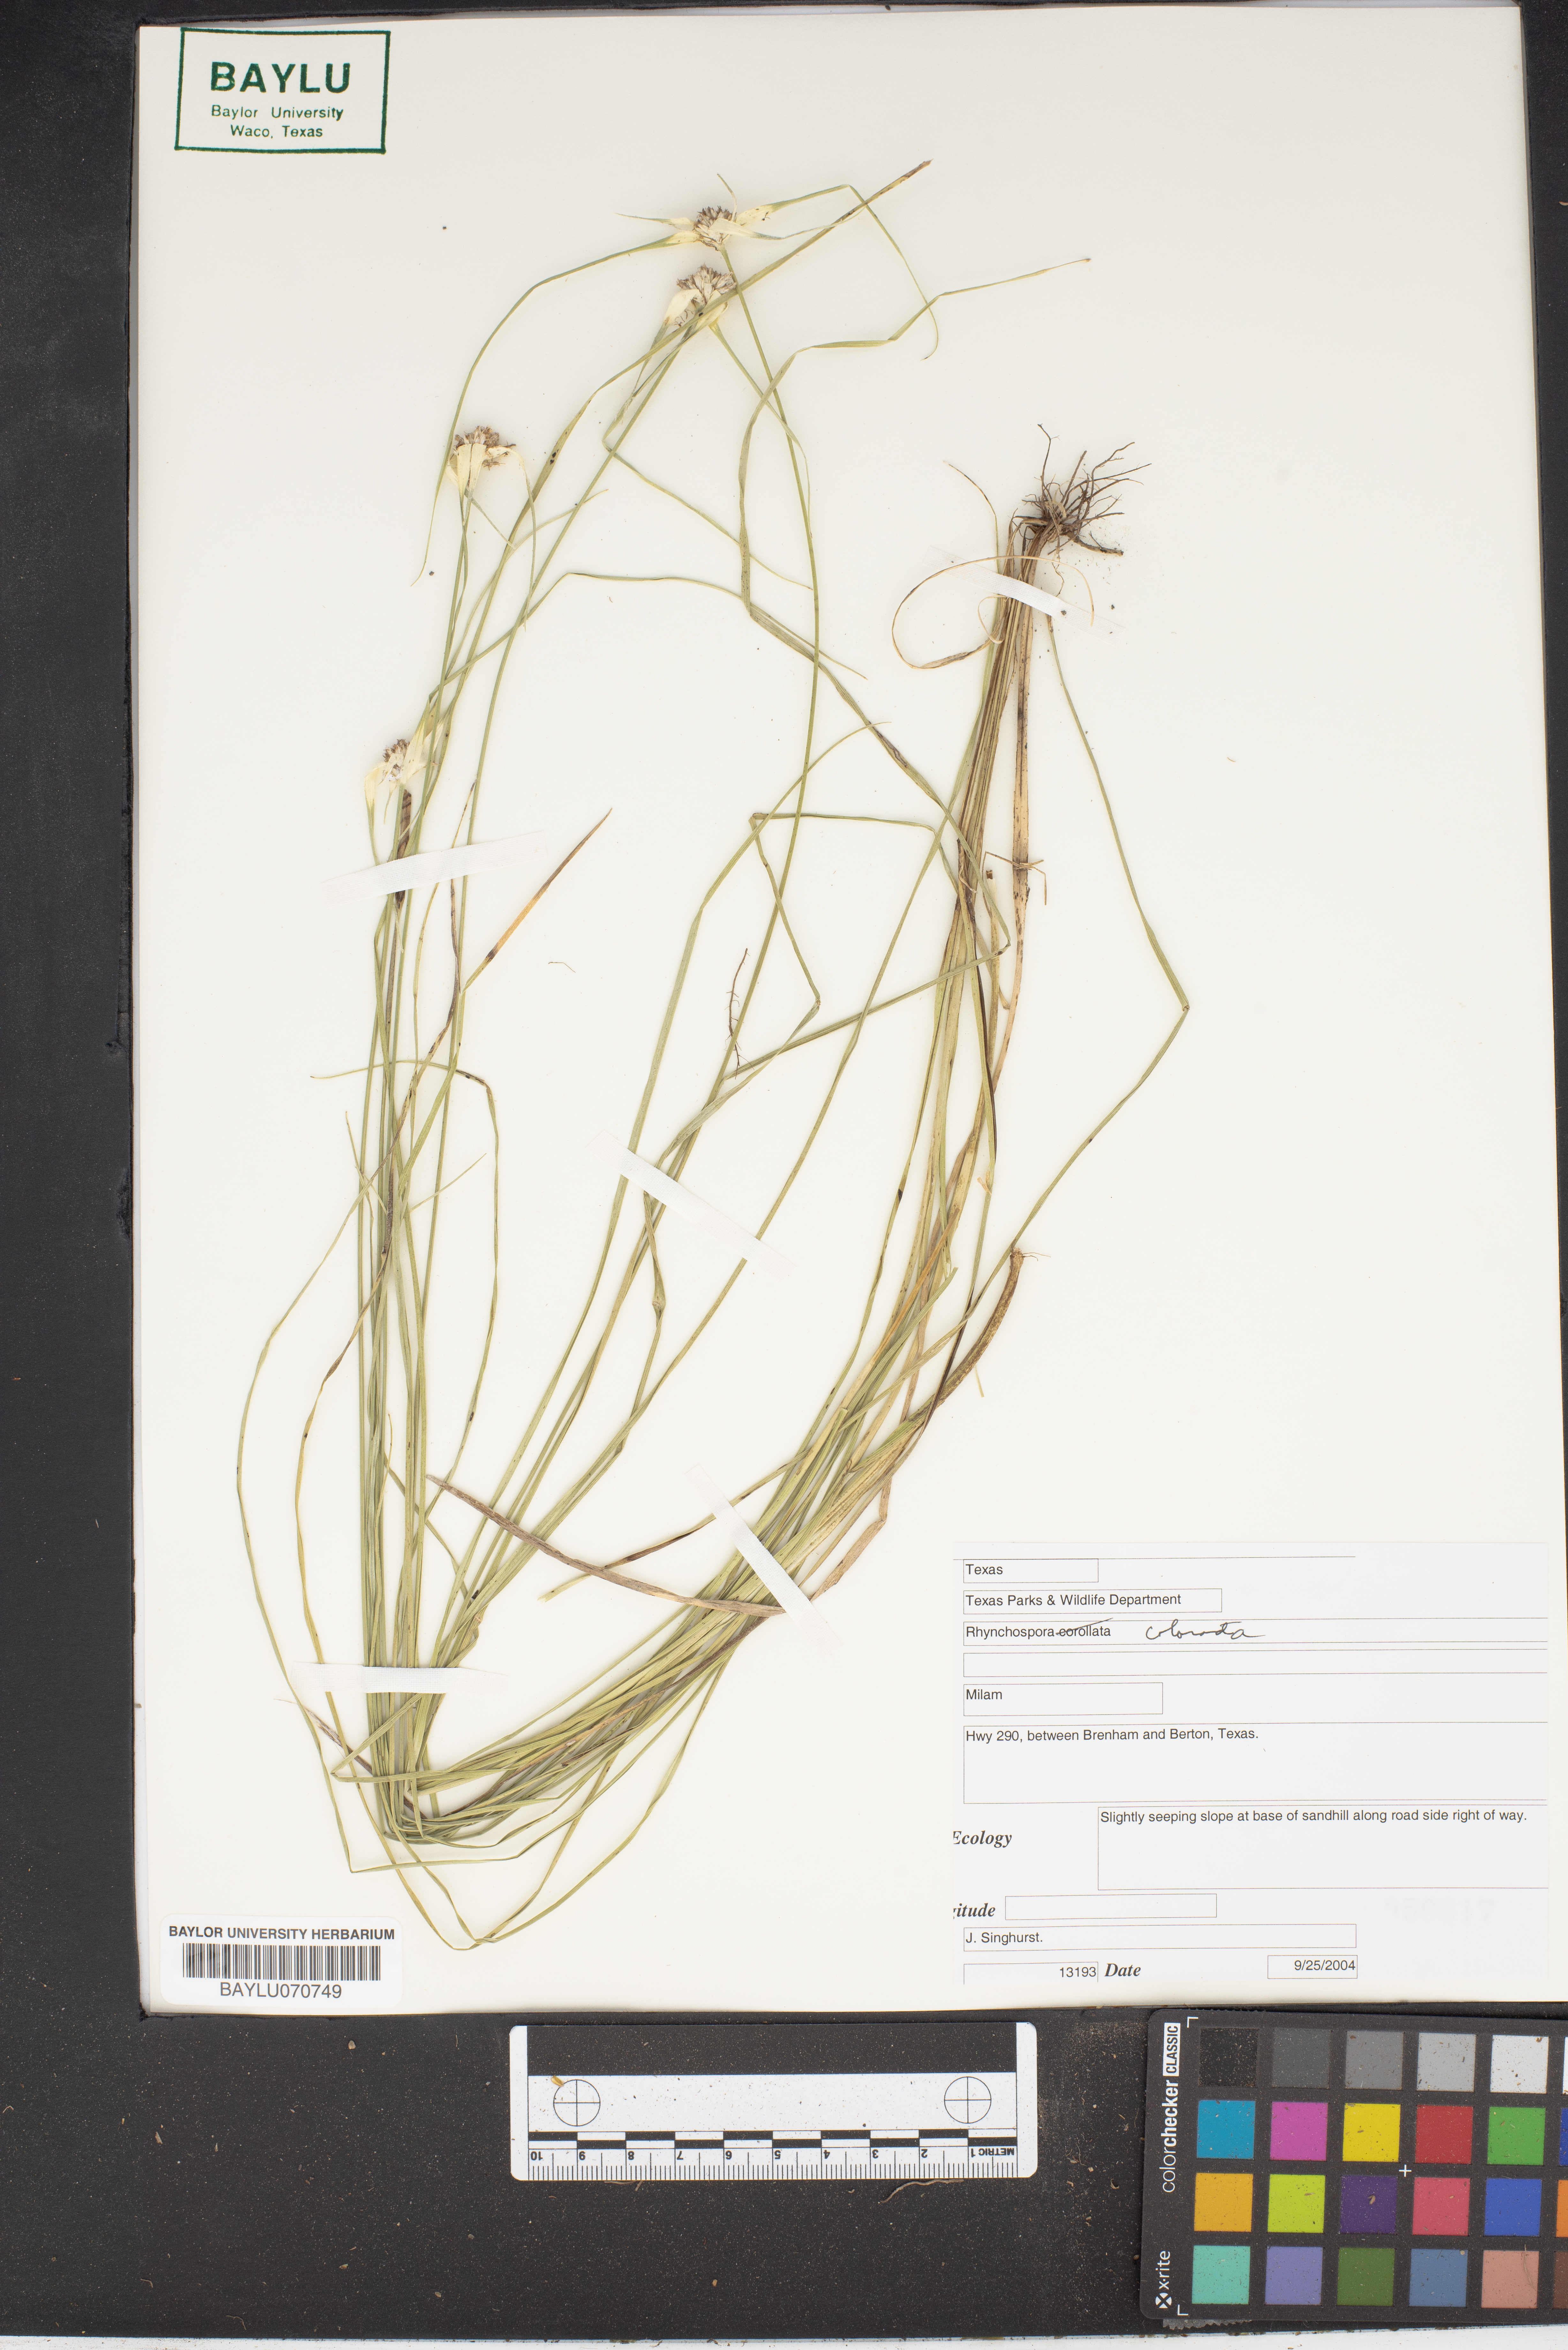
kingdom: Plantae
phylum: Tracheophyta
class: Liliopsida
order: Poales
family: Cyperaceae
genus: Rhynchospora
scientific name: Rhynchospora colorata
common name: Star sedge
